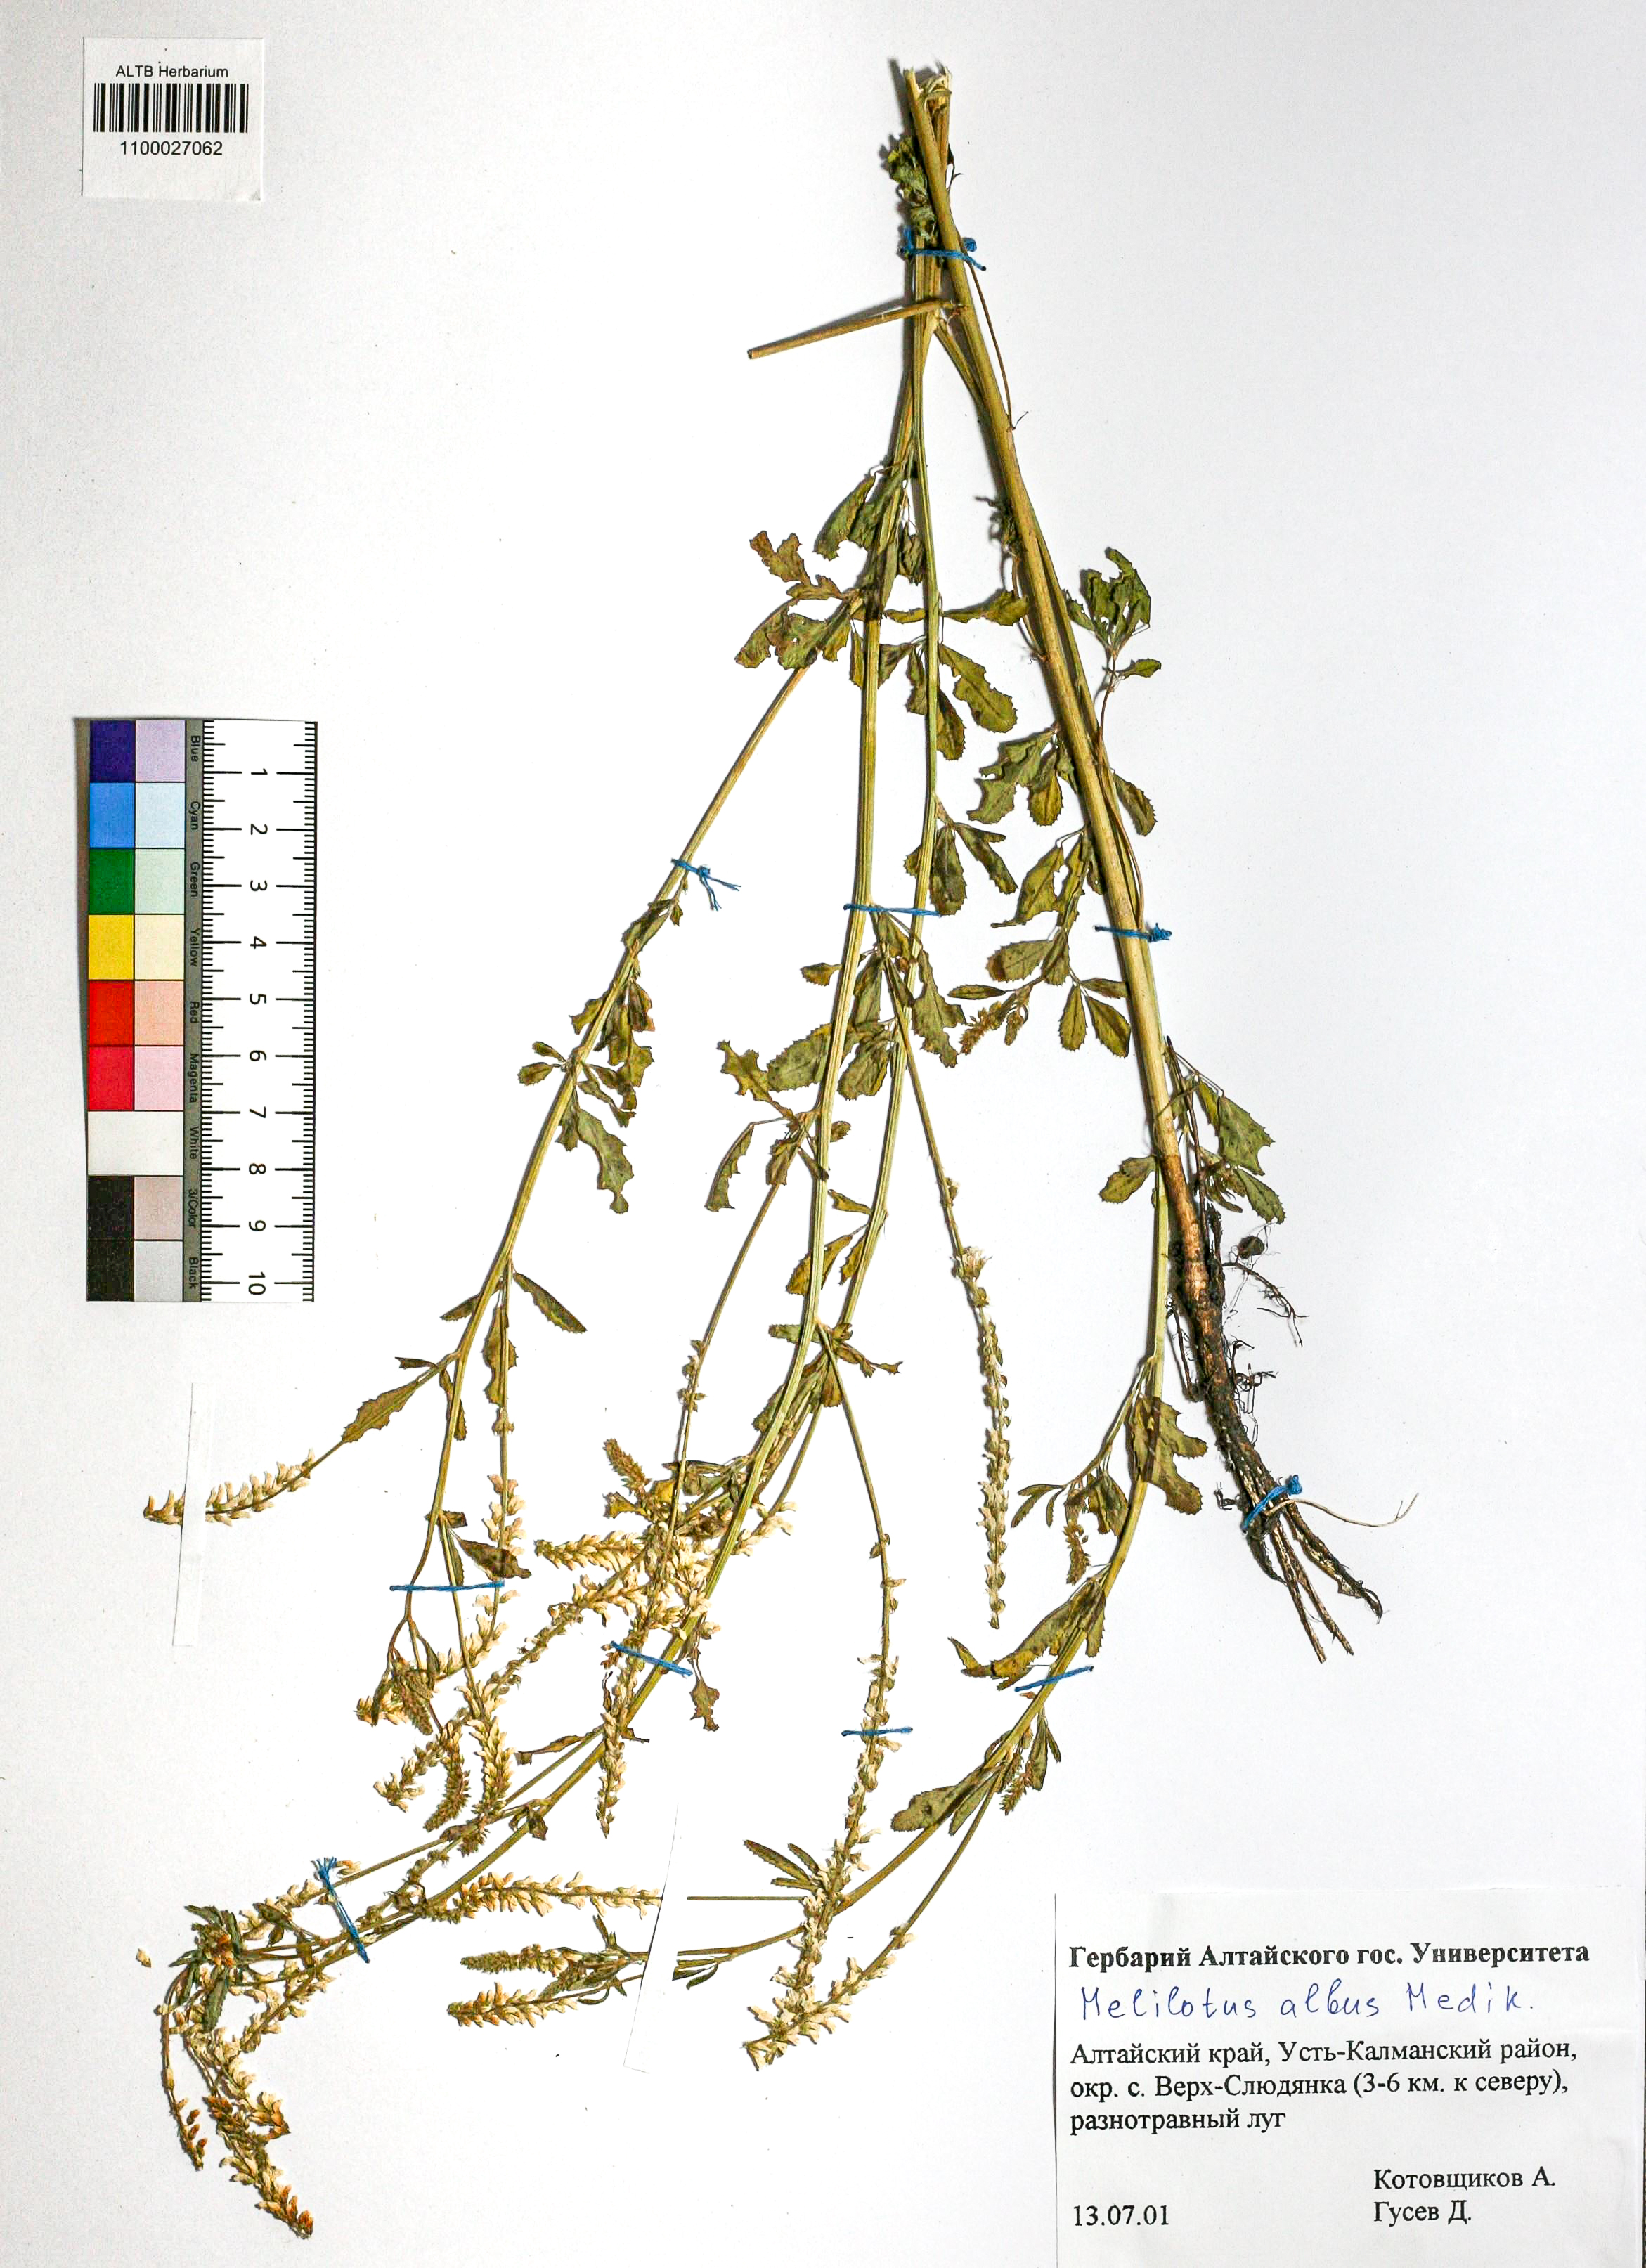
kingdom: Plantae
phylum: Tracheophyta
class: Magnoliopsida
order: Fabales
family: Fabaceae
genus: Melilotus
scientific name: Melilotus albus
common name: White melilot
